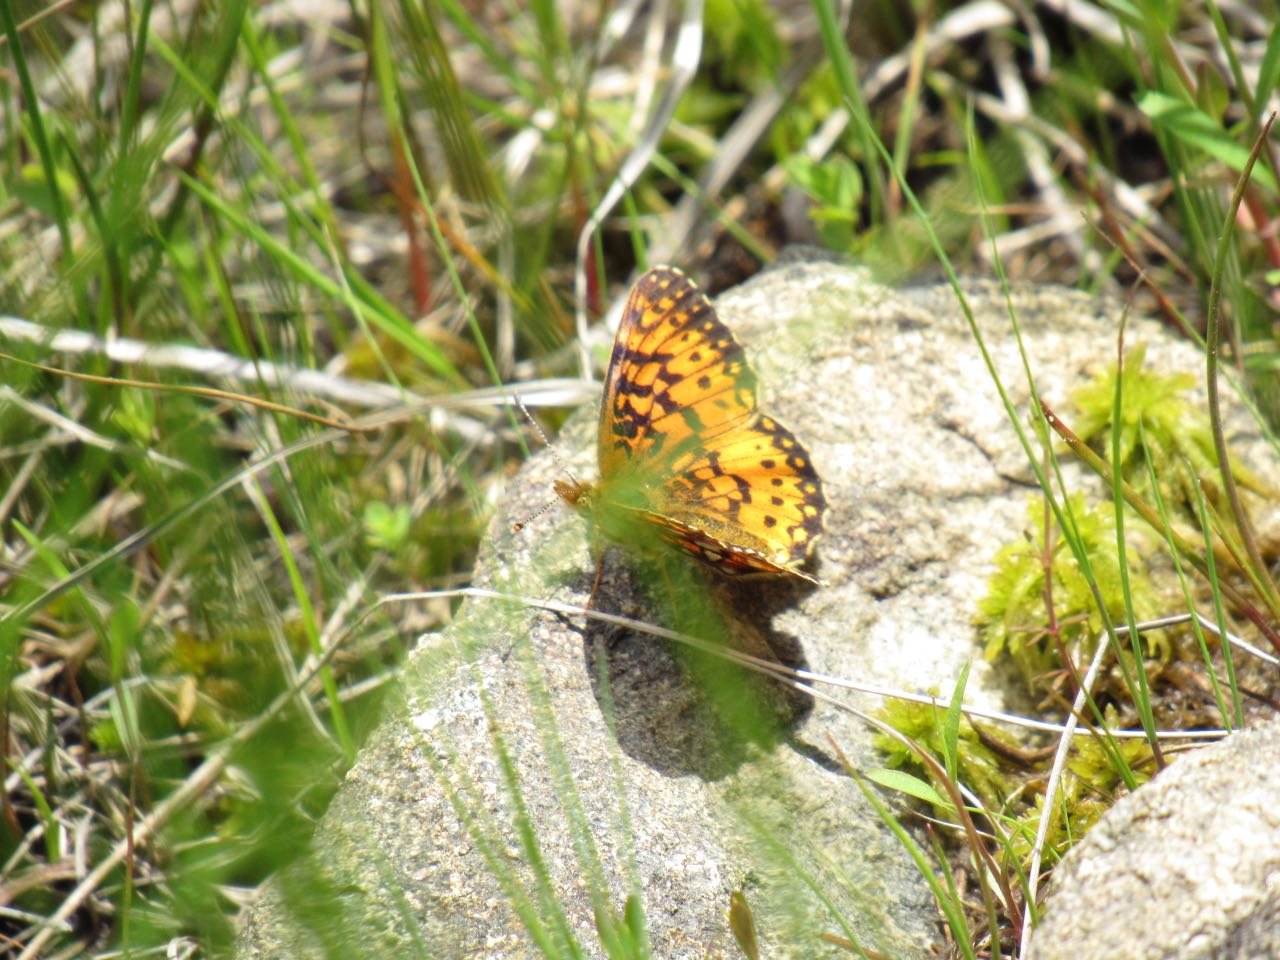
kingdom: Animalia
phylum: Arthropoda
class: Insecta
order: Lepidoptera
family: Nymphalidae
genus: Boloria
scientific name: Boloria selene
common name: Silver-bordered Fritillary
